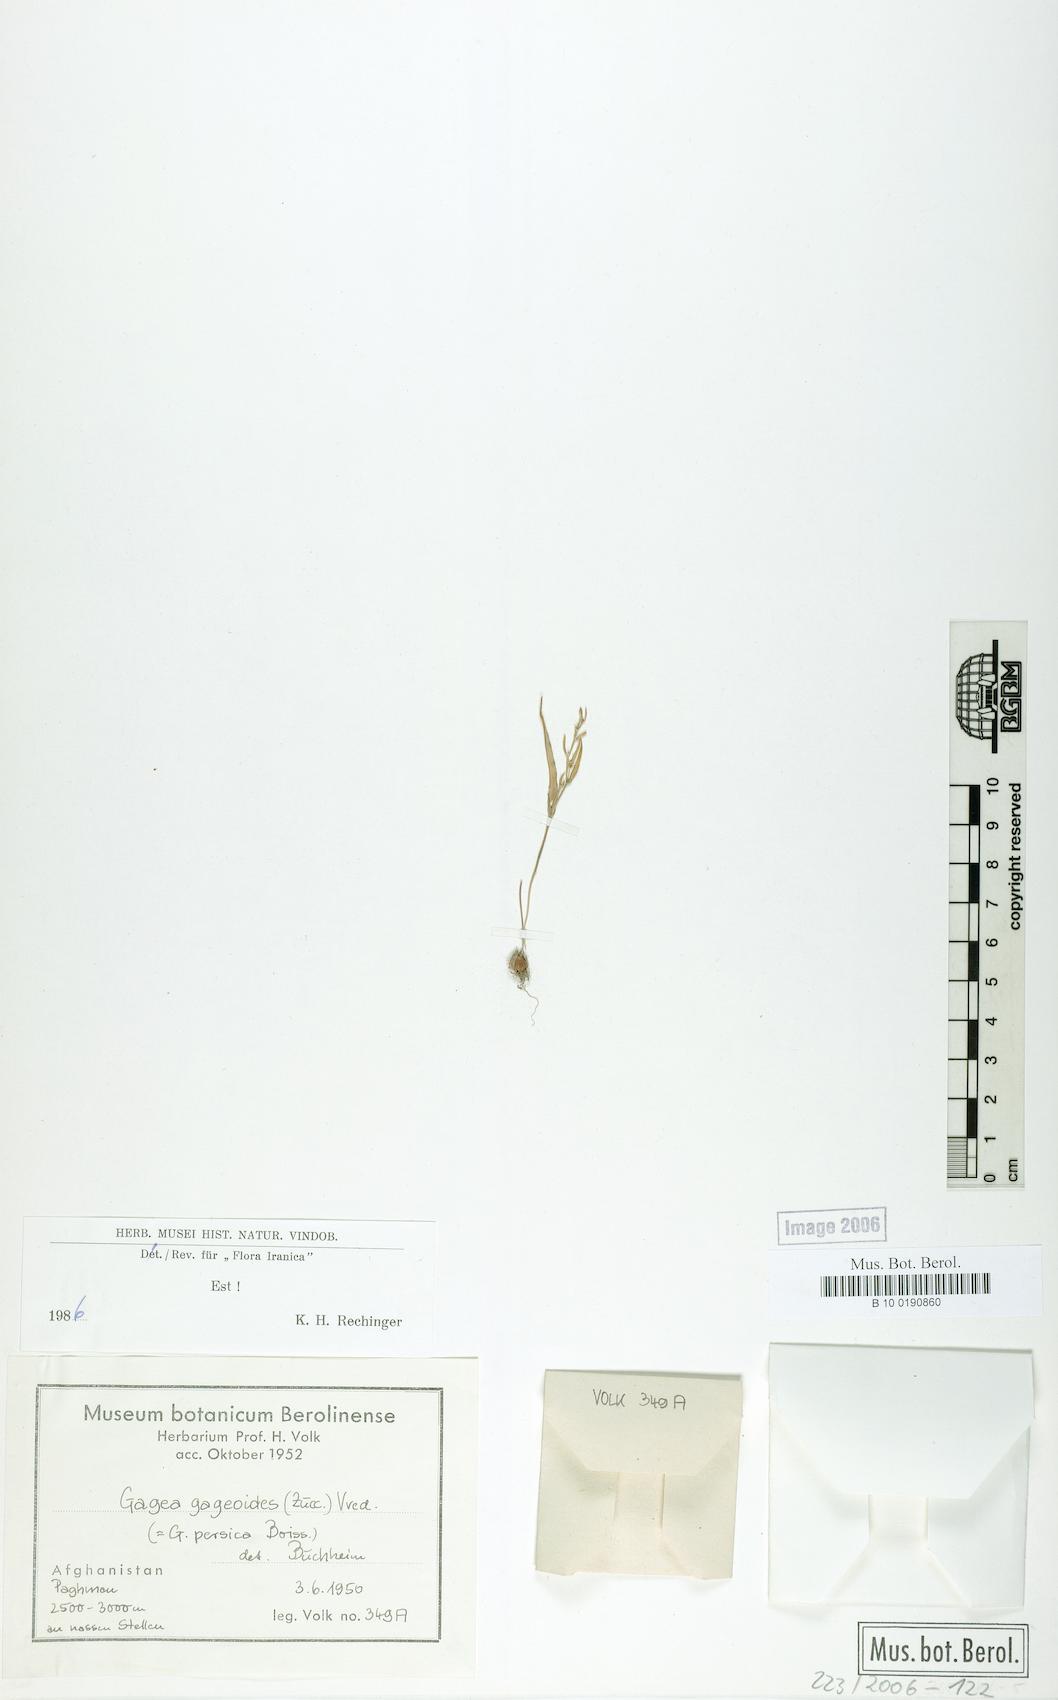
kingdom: Plantae
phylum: Tracheophyta
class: Liliopsida
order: Liliales
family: Liliaceae
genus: Gagea
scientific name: Gagea gageoides
